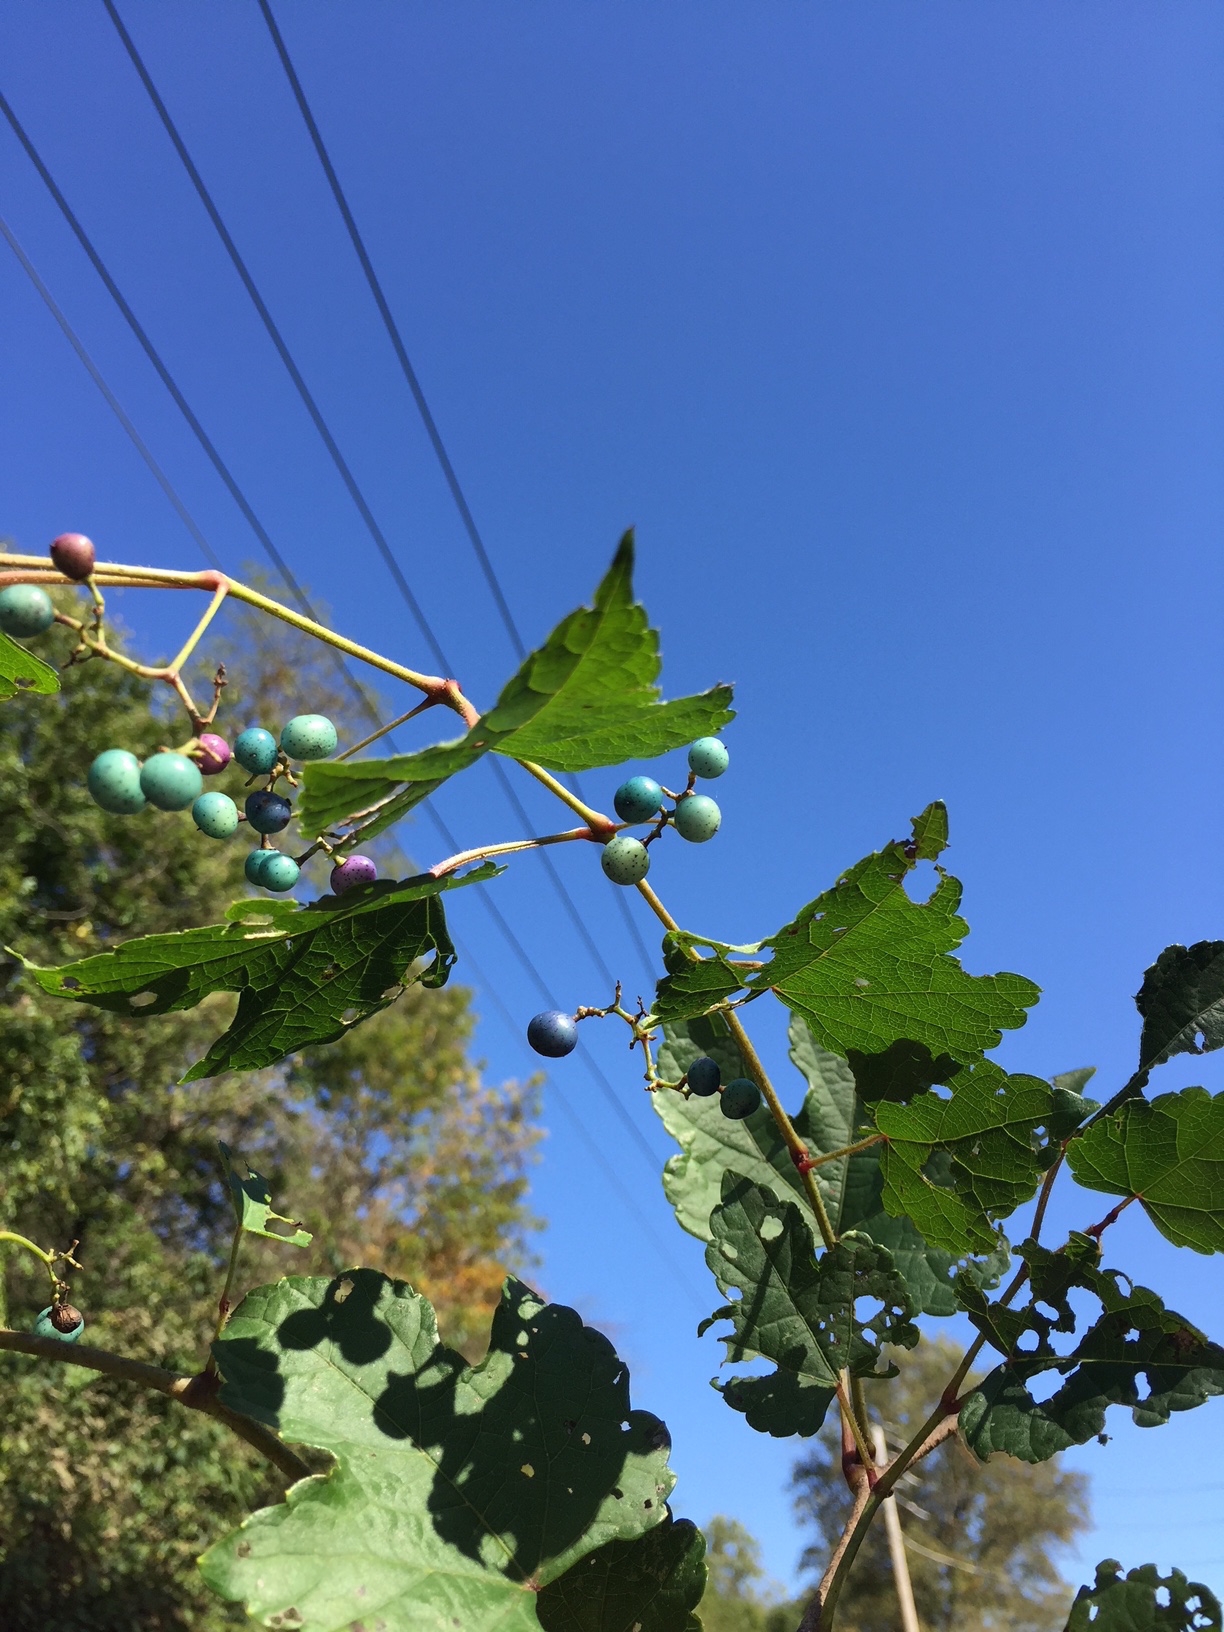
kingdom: Plantae
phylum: Tracheophyta
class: Magnoliopsida
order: Vitales
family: Vitaceae
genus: Ampelopsis
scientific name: Ampelopsis brevipedunculata
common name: Porcelain Berry
